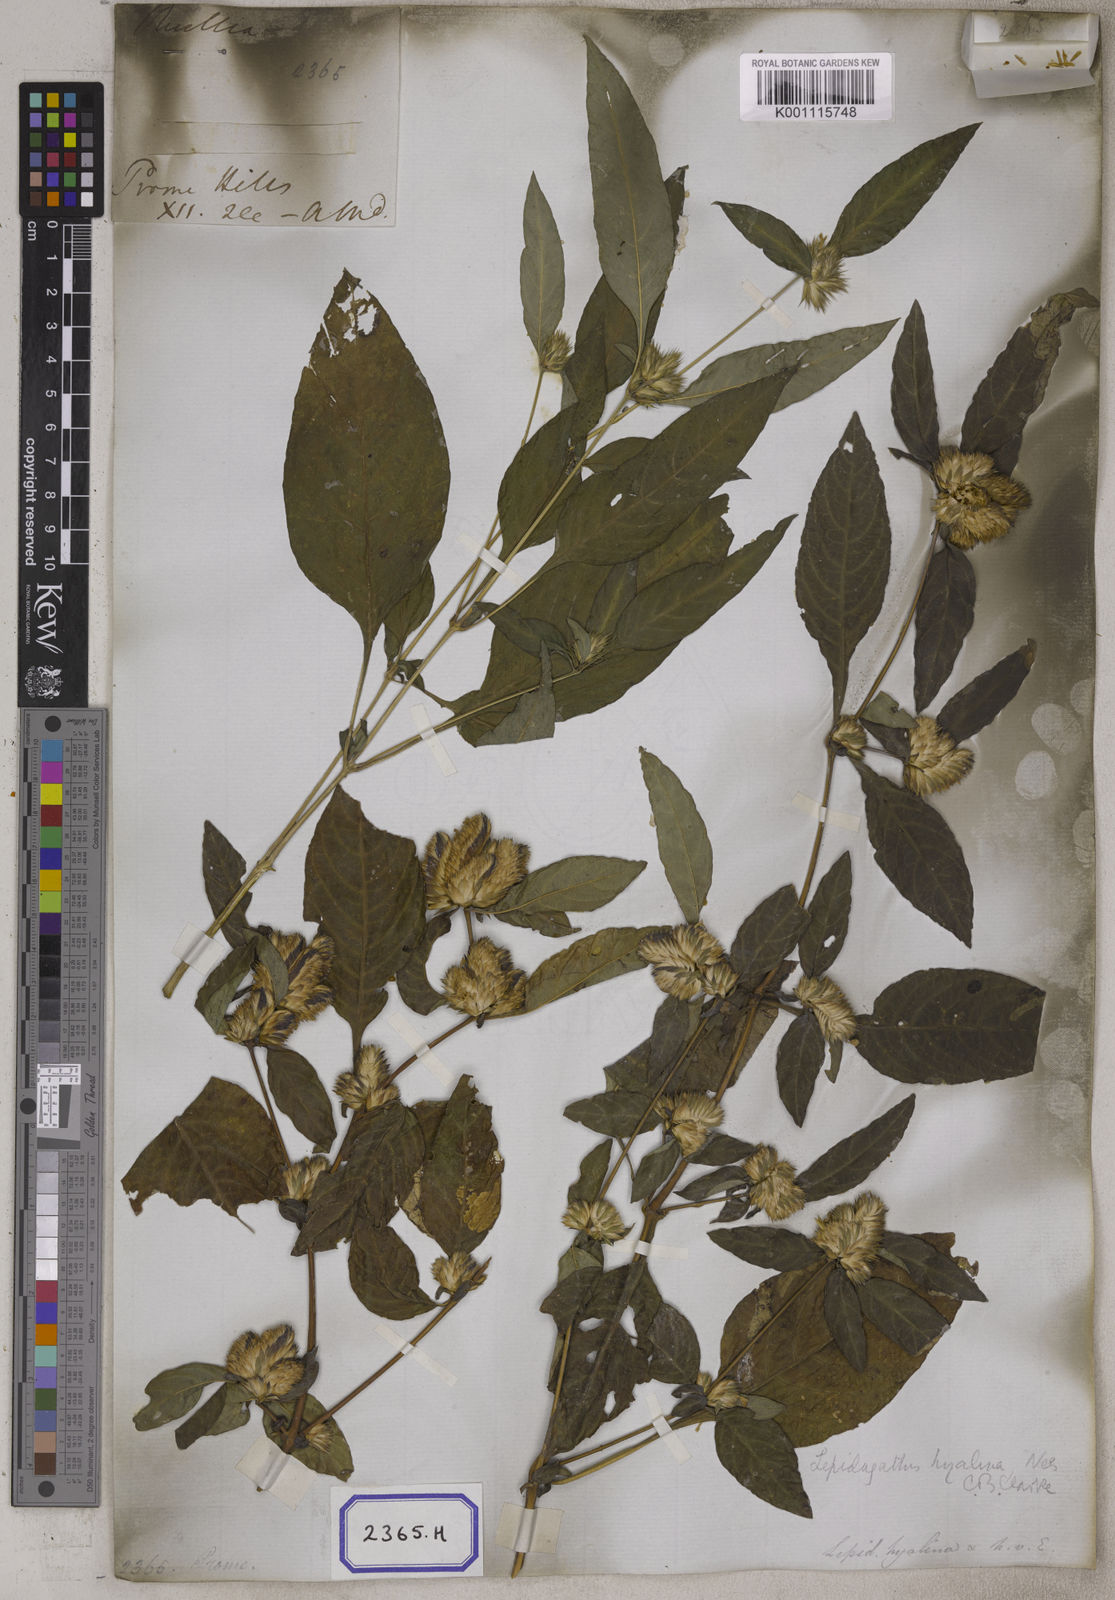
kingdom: Plantae
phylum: Tracheophyta
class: Magnoliopsida
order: Lamiales
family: Acanthaceae
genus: Lepidagathis
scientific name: Lepidagathis incurva
